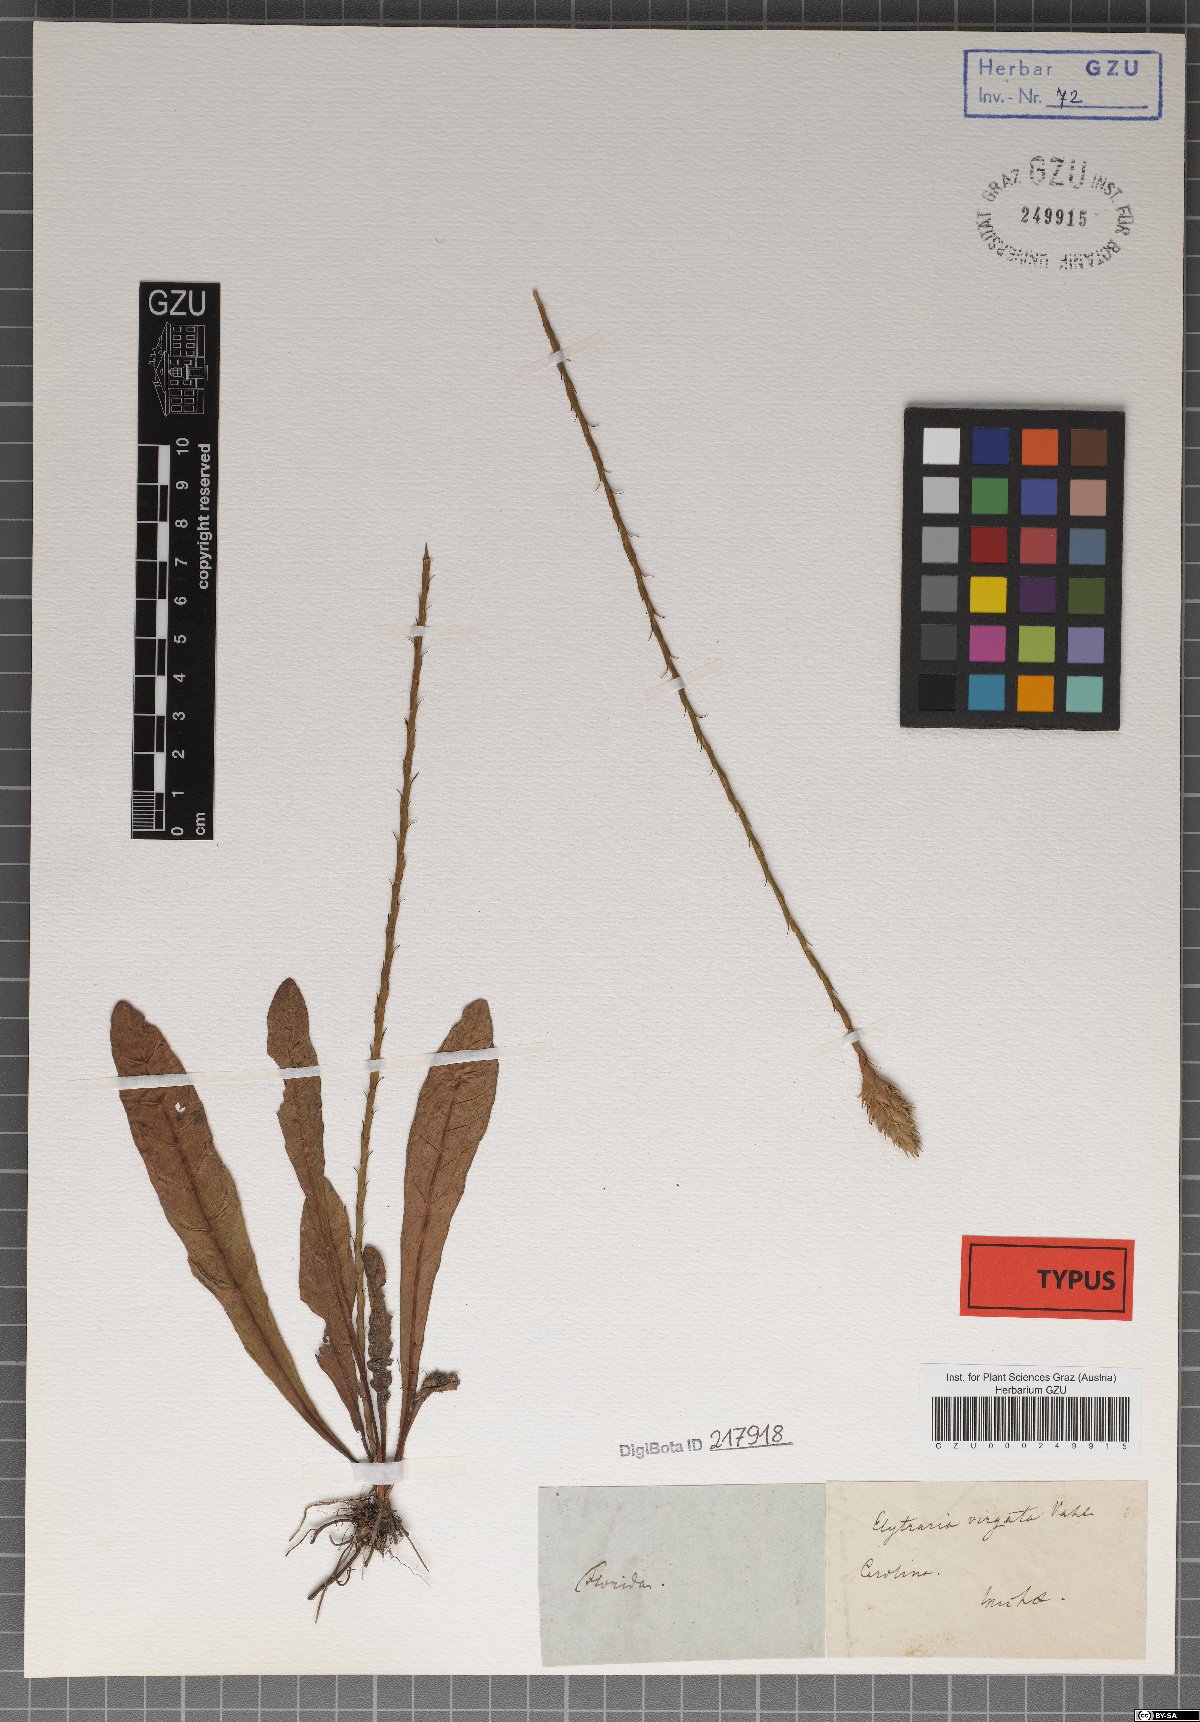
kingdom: Plantae
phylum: Tracheophyta
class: Magnoliopsida
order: Lamiales
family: Acanthaceae
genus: Elytraria
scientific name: Elytraria caroliniensis
